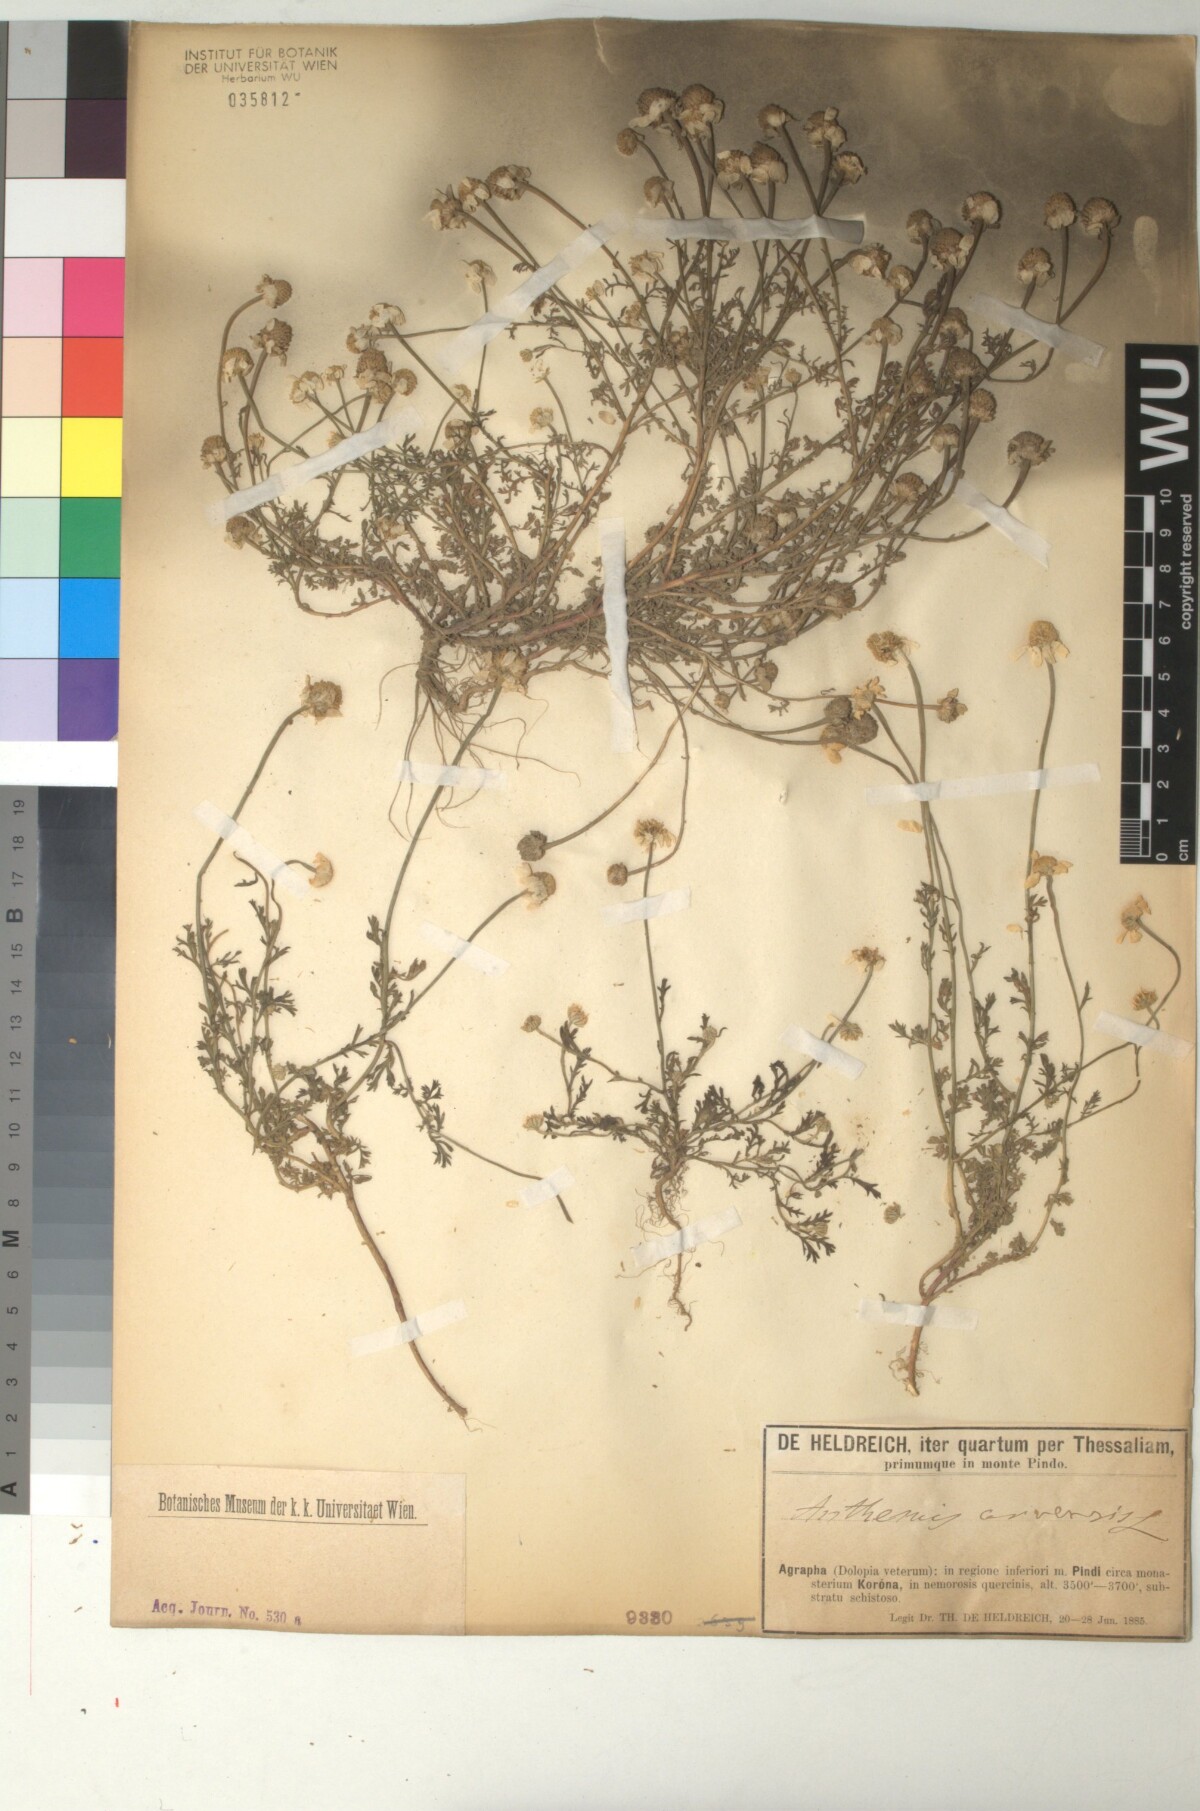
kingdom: Plantae
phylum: Tracheophyta
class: Magnoliopsida
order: Asterales
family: Asteraceae
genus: Anthemis
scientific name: Anthemis arvensis
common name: Corn chamomile
